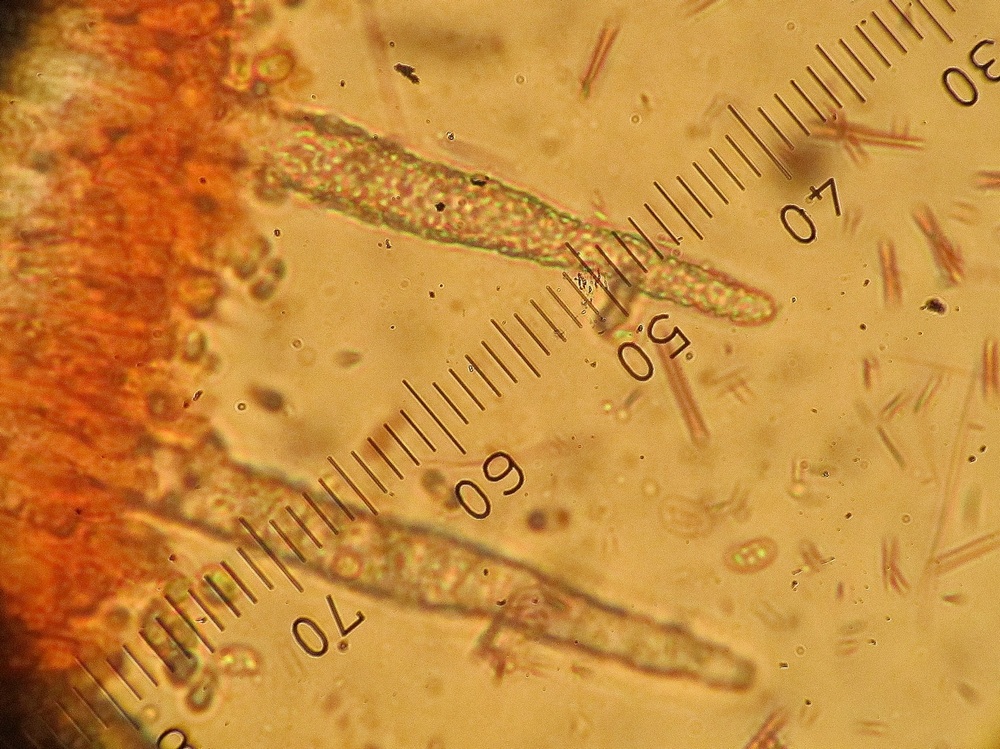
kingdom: Fungi
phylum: Basidiomycota
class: Agaricomycetes
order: Atheliales
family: Atheliaceae
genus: Amphinema
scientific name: Amphinema byssoides
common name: almindelig rodhinde
